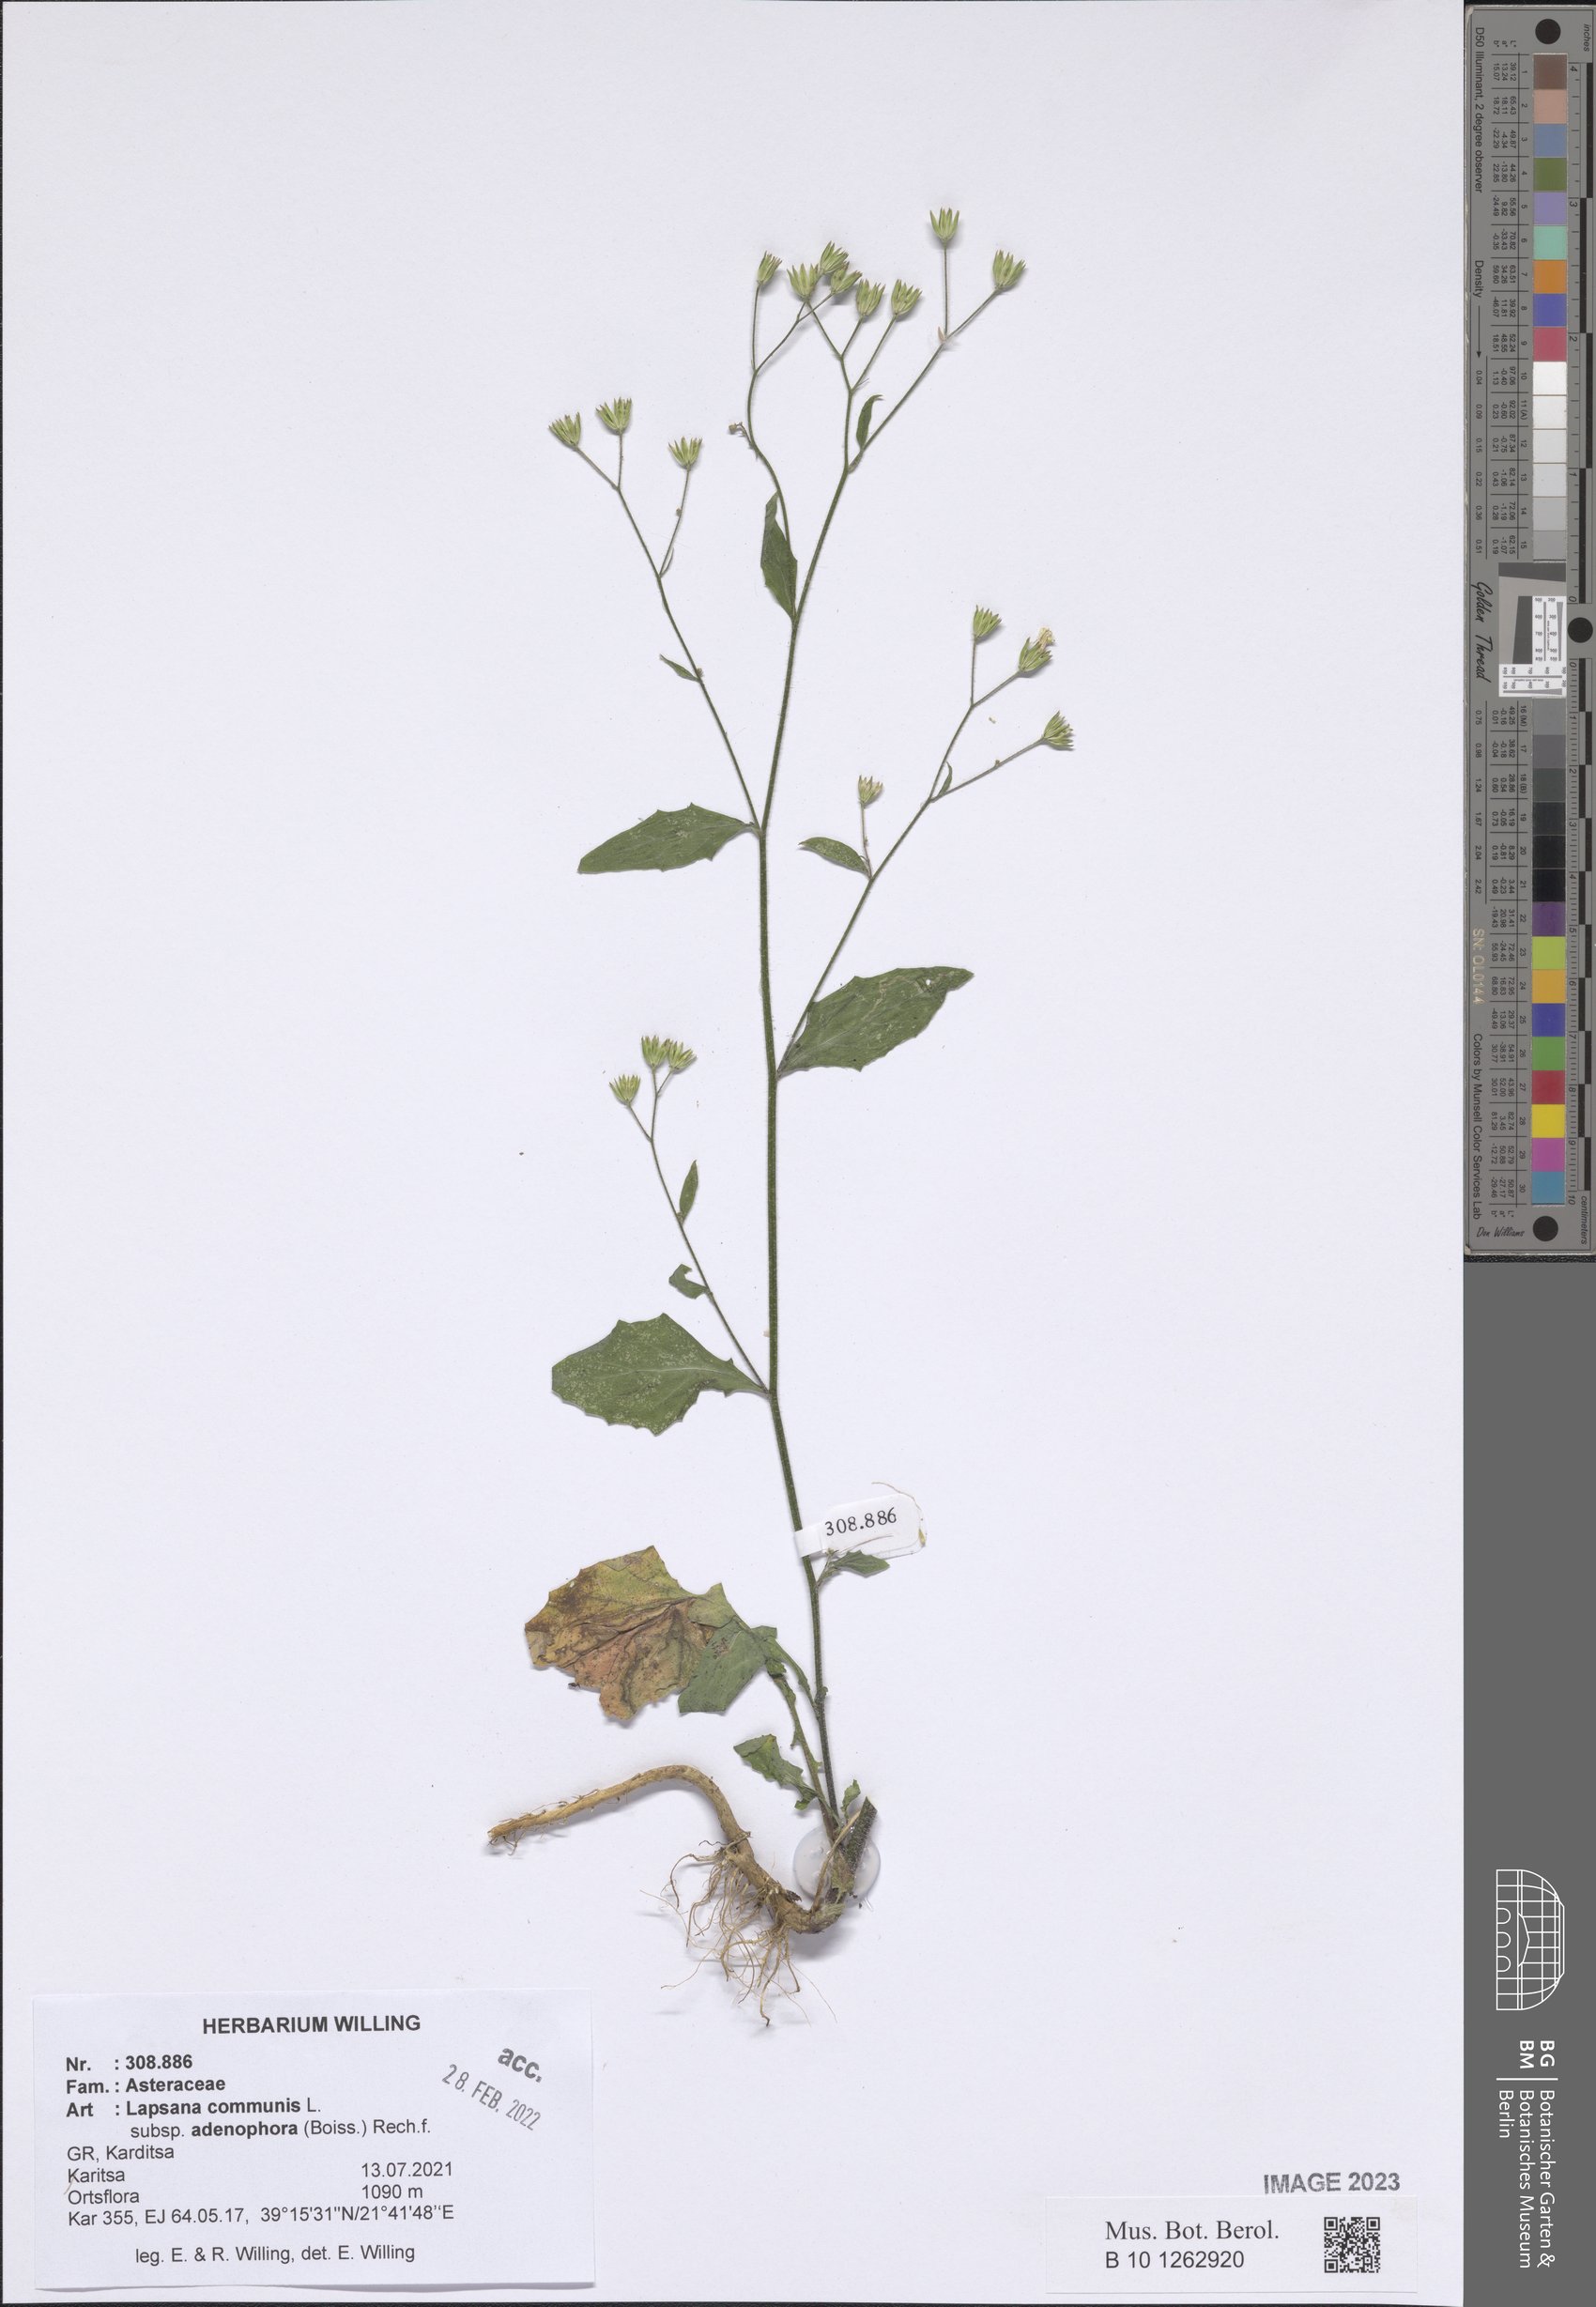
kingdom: Plantae
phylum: Tracheophyta
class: Magnoliopsida
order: Asterales
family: Asteraceae
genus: Lapsana
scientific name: Lapsana communis
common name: Nipplewort
